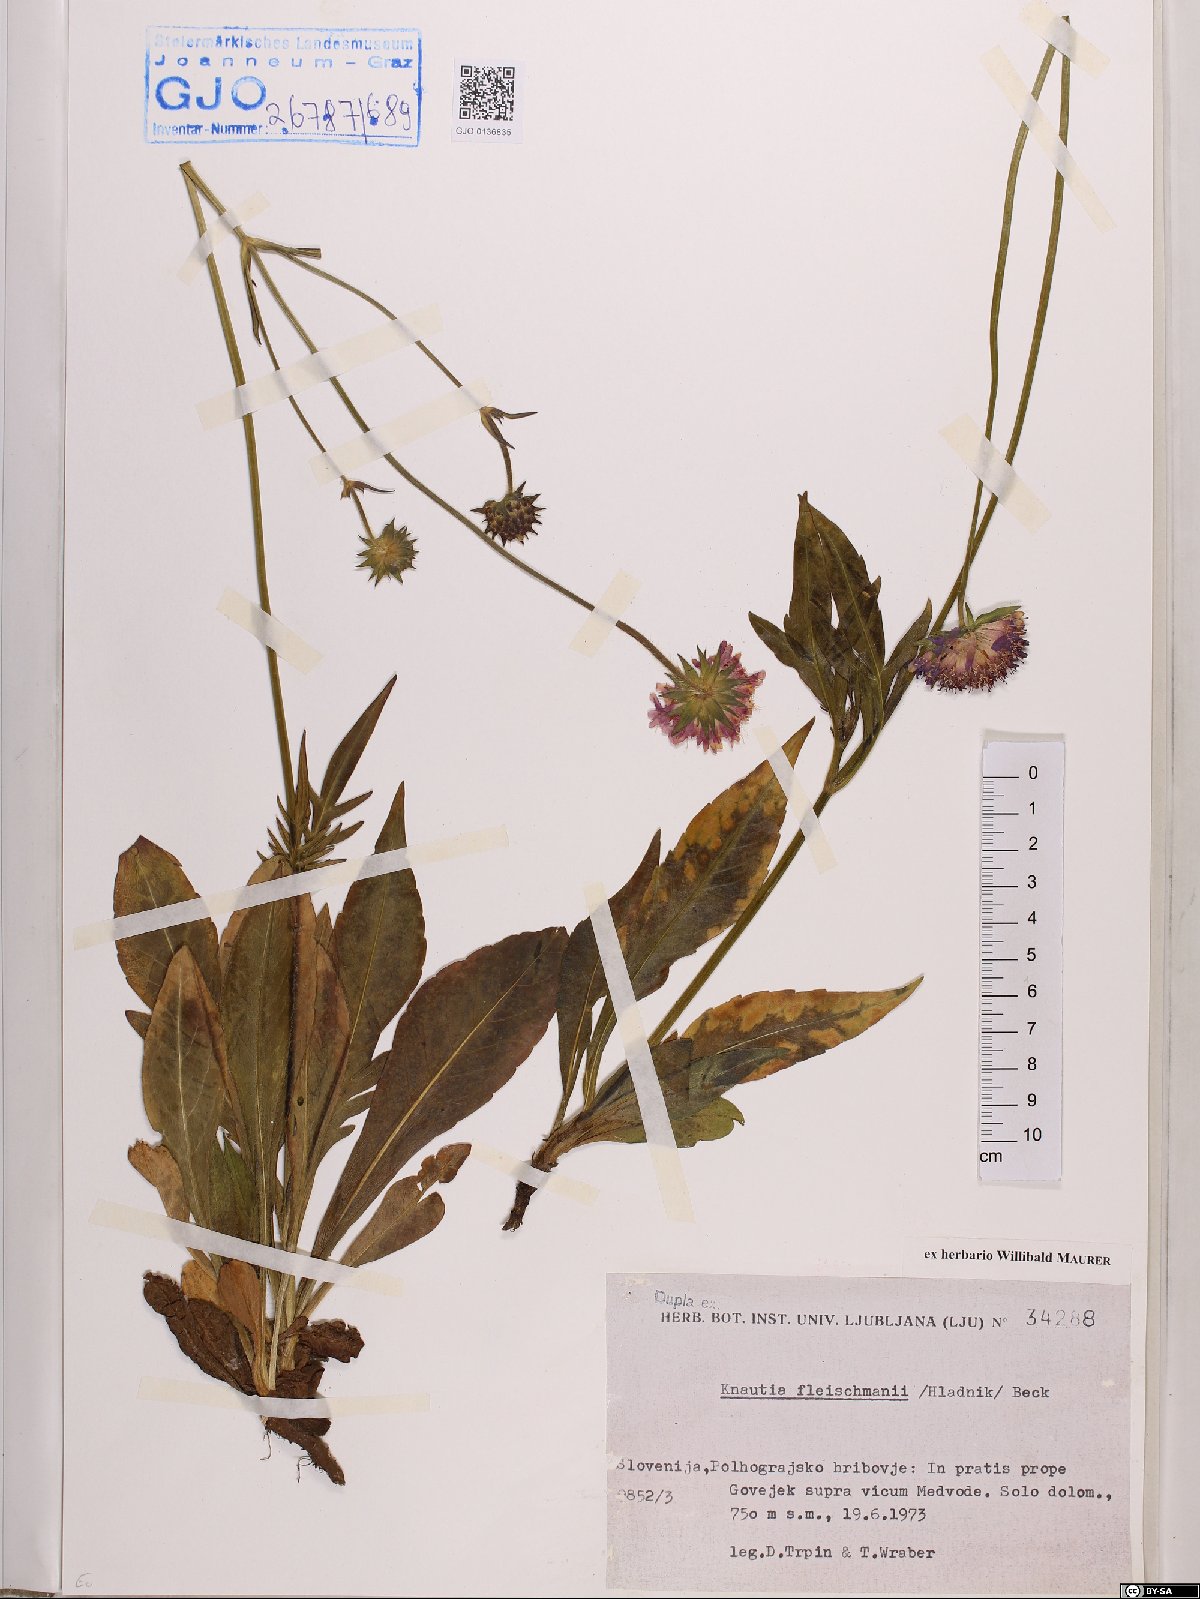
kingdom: Plantae
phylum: Tracheophyta
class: Magnoliopsida
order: Dipsacales
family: Caprifoliaceae
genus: Knautia
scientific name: Knautia fleischmannii
